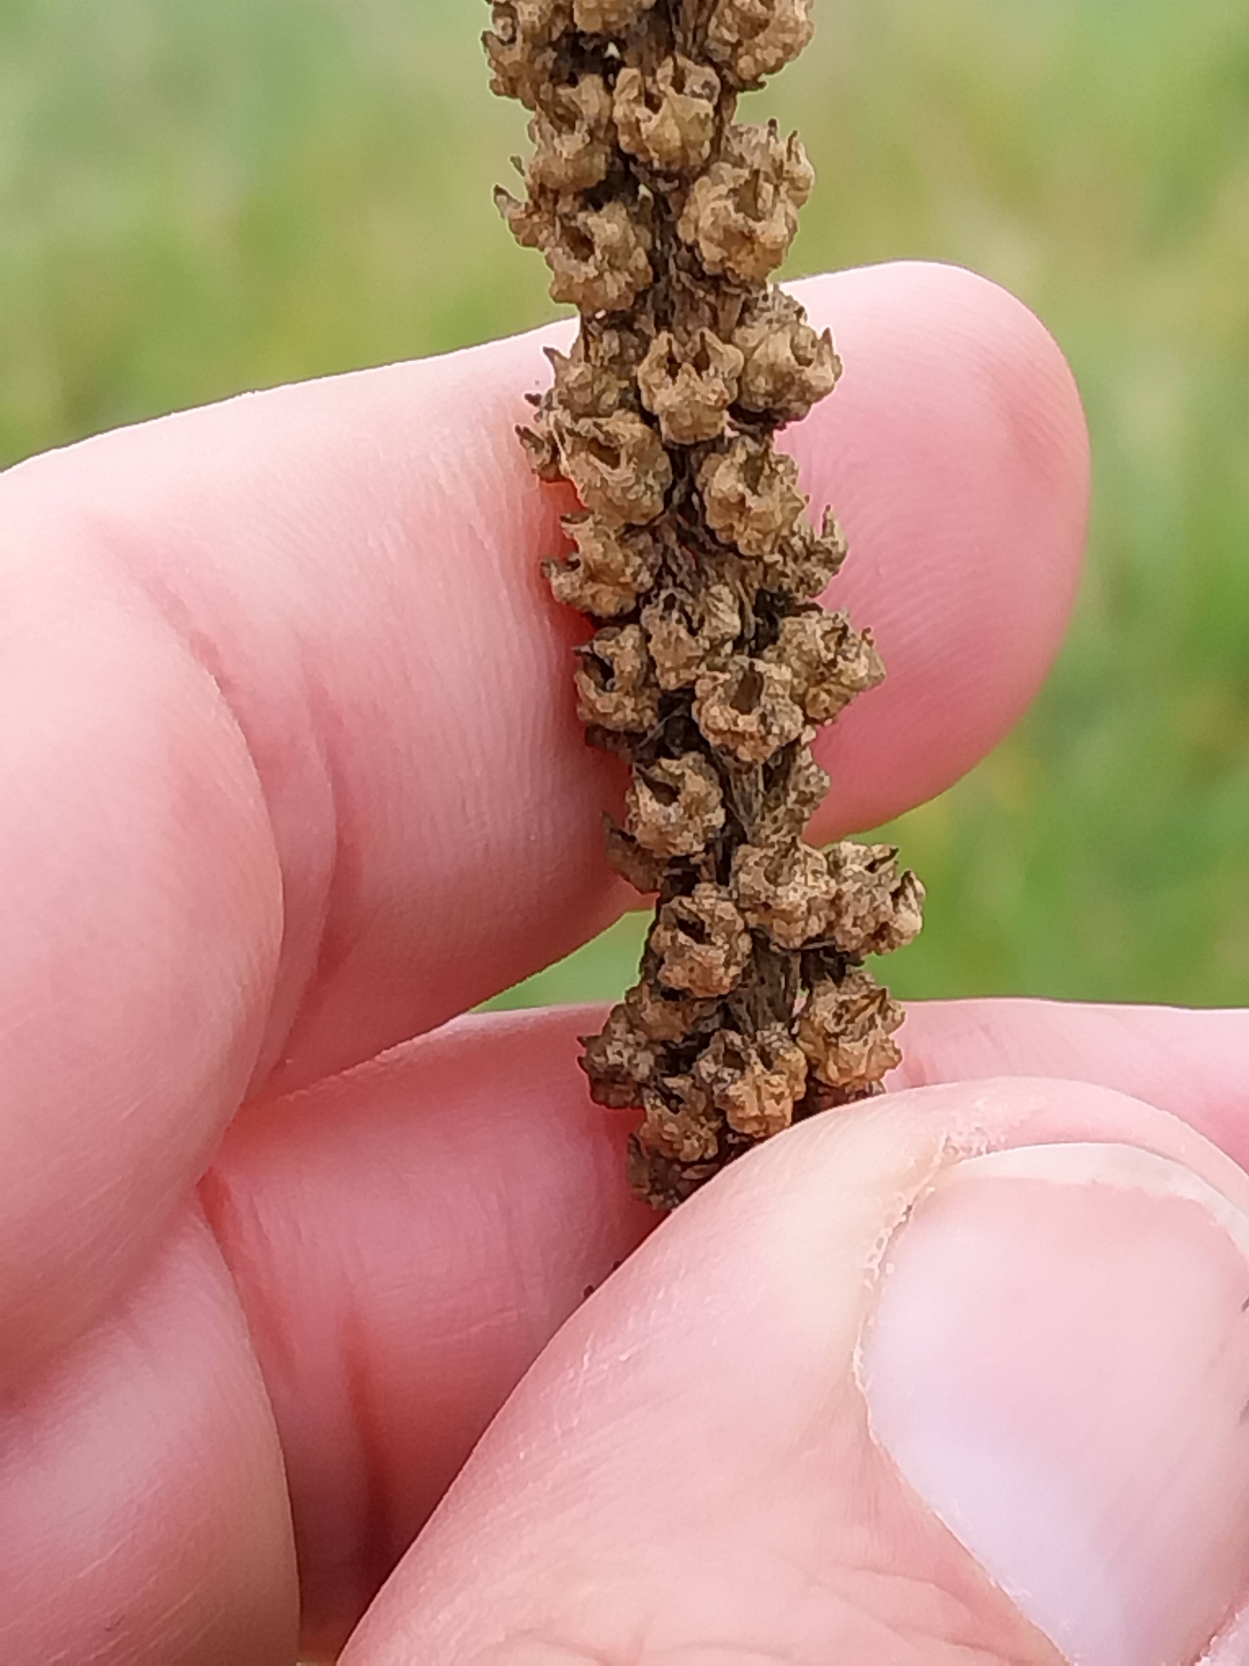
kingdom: Plantae
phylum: Tracheophyta
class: Magnoliopsida
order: Brassicales
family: Resedaceae
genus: Reseda
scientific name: Reseda luteola
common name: Farve-reseda
